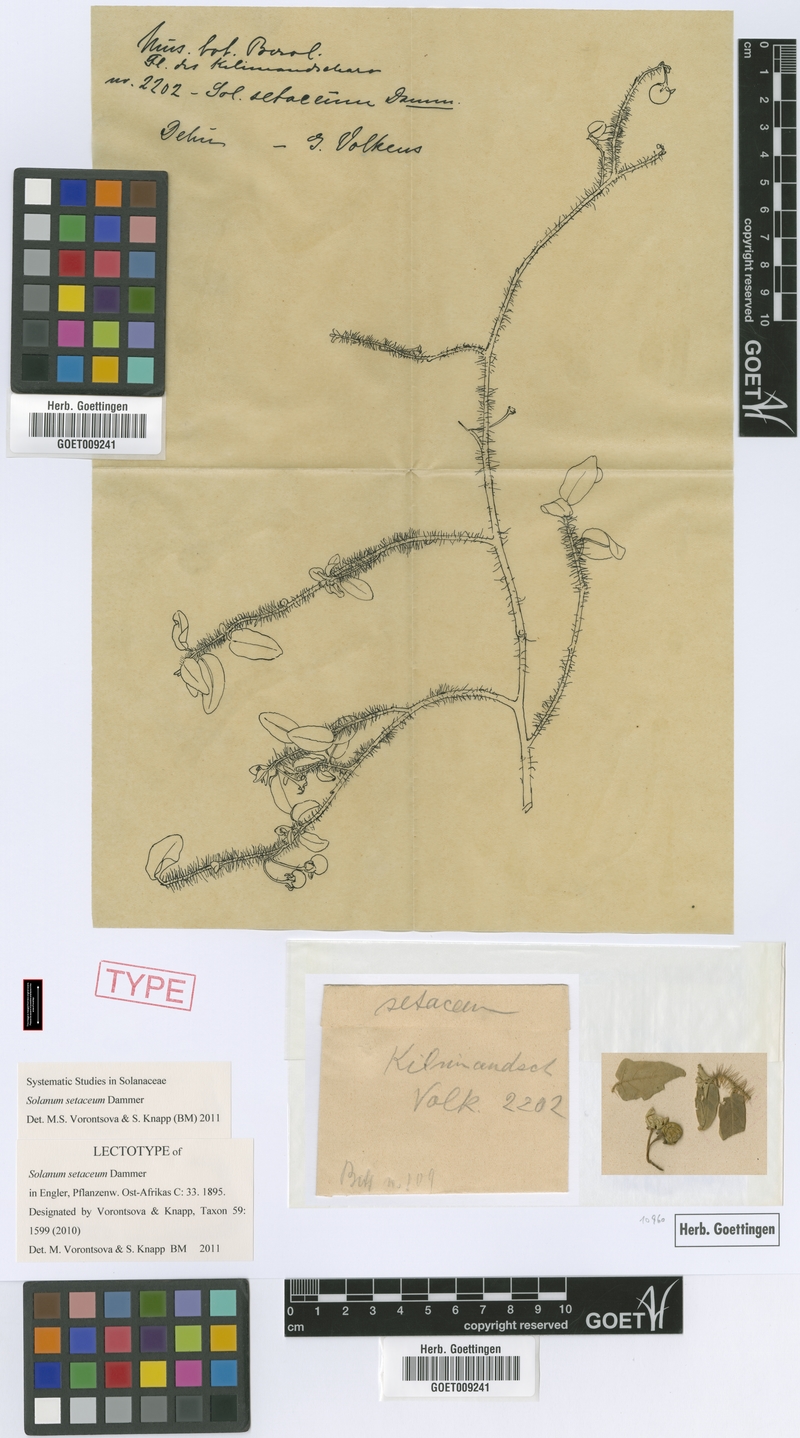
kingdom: Plantae
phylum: Tracheophyta
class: Magnoliopsida
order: Solanales
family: Solanaceae
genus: Solanum
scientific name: Solanum setaceum
